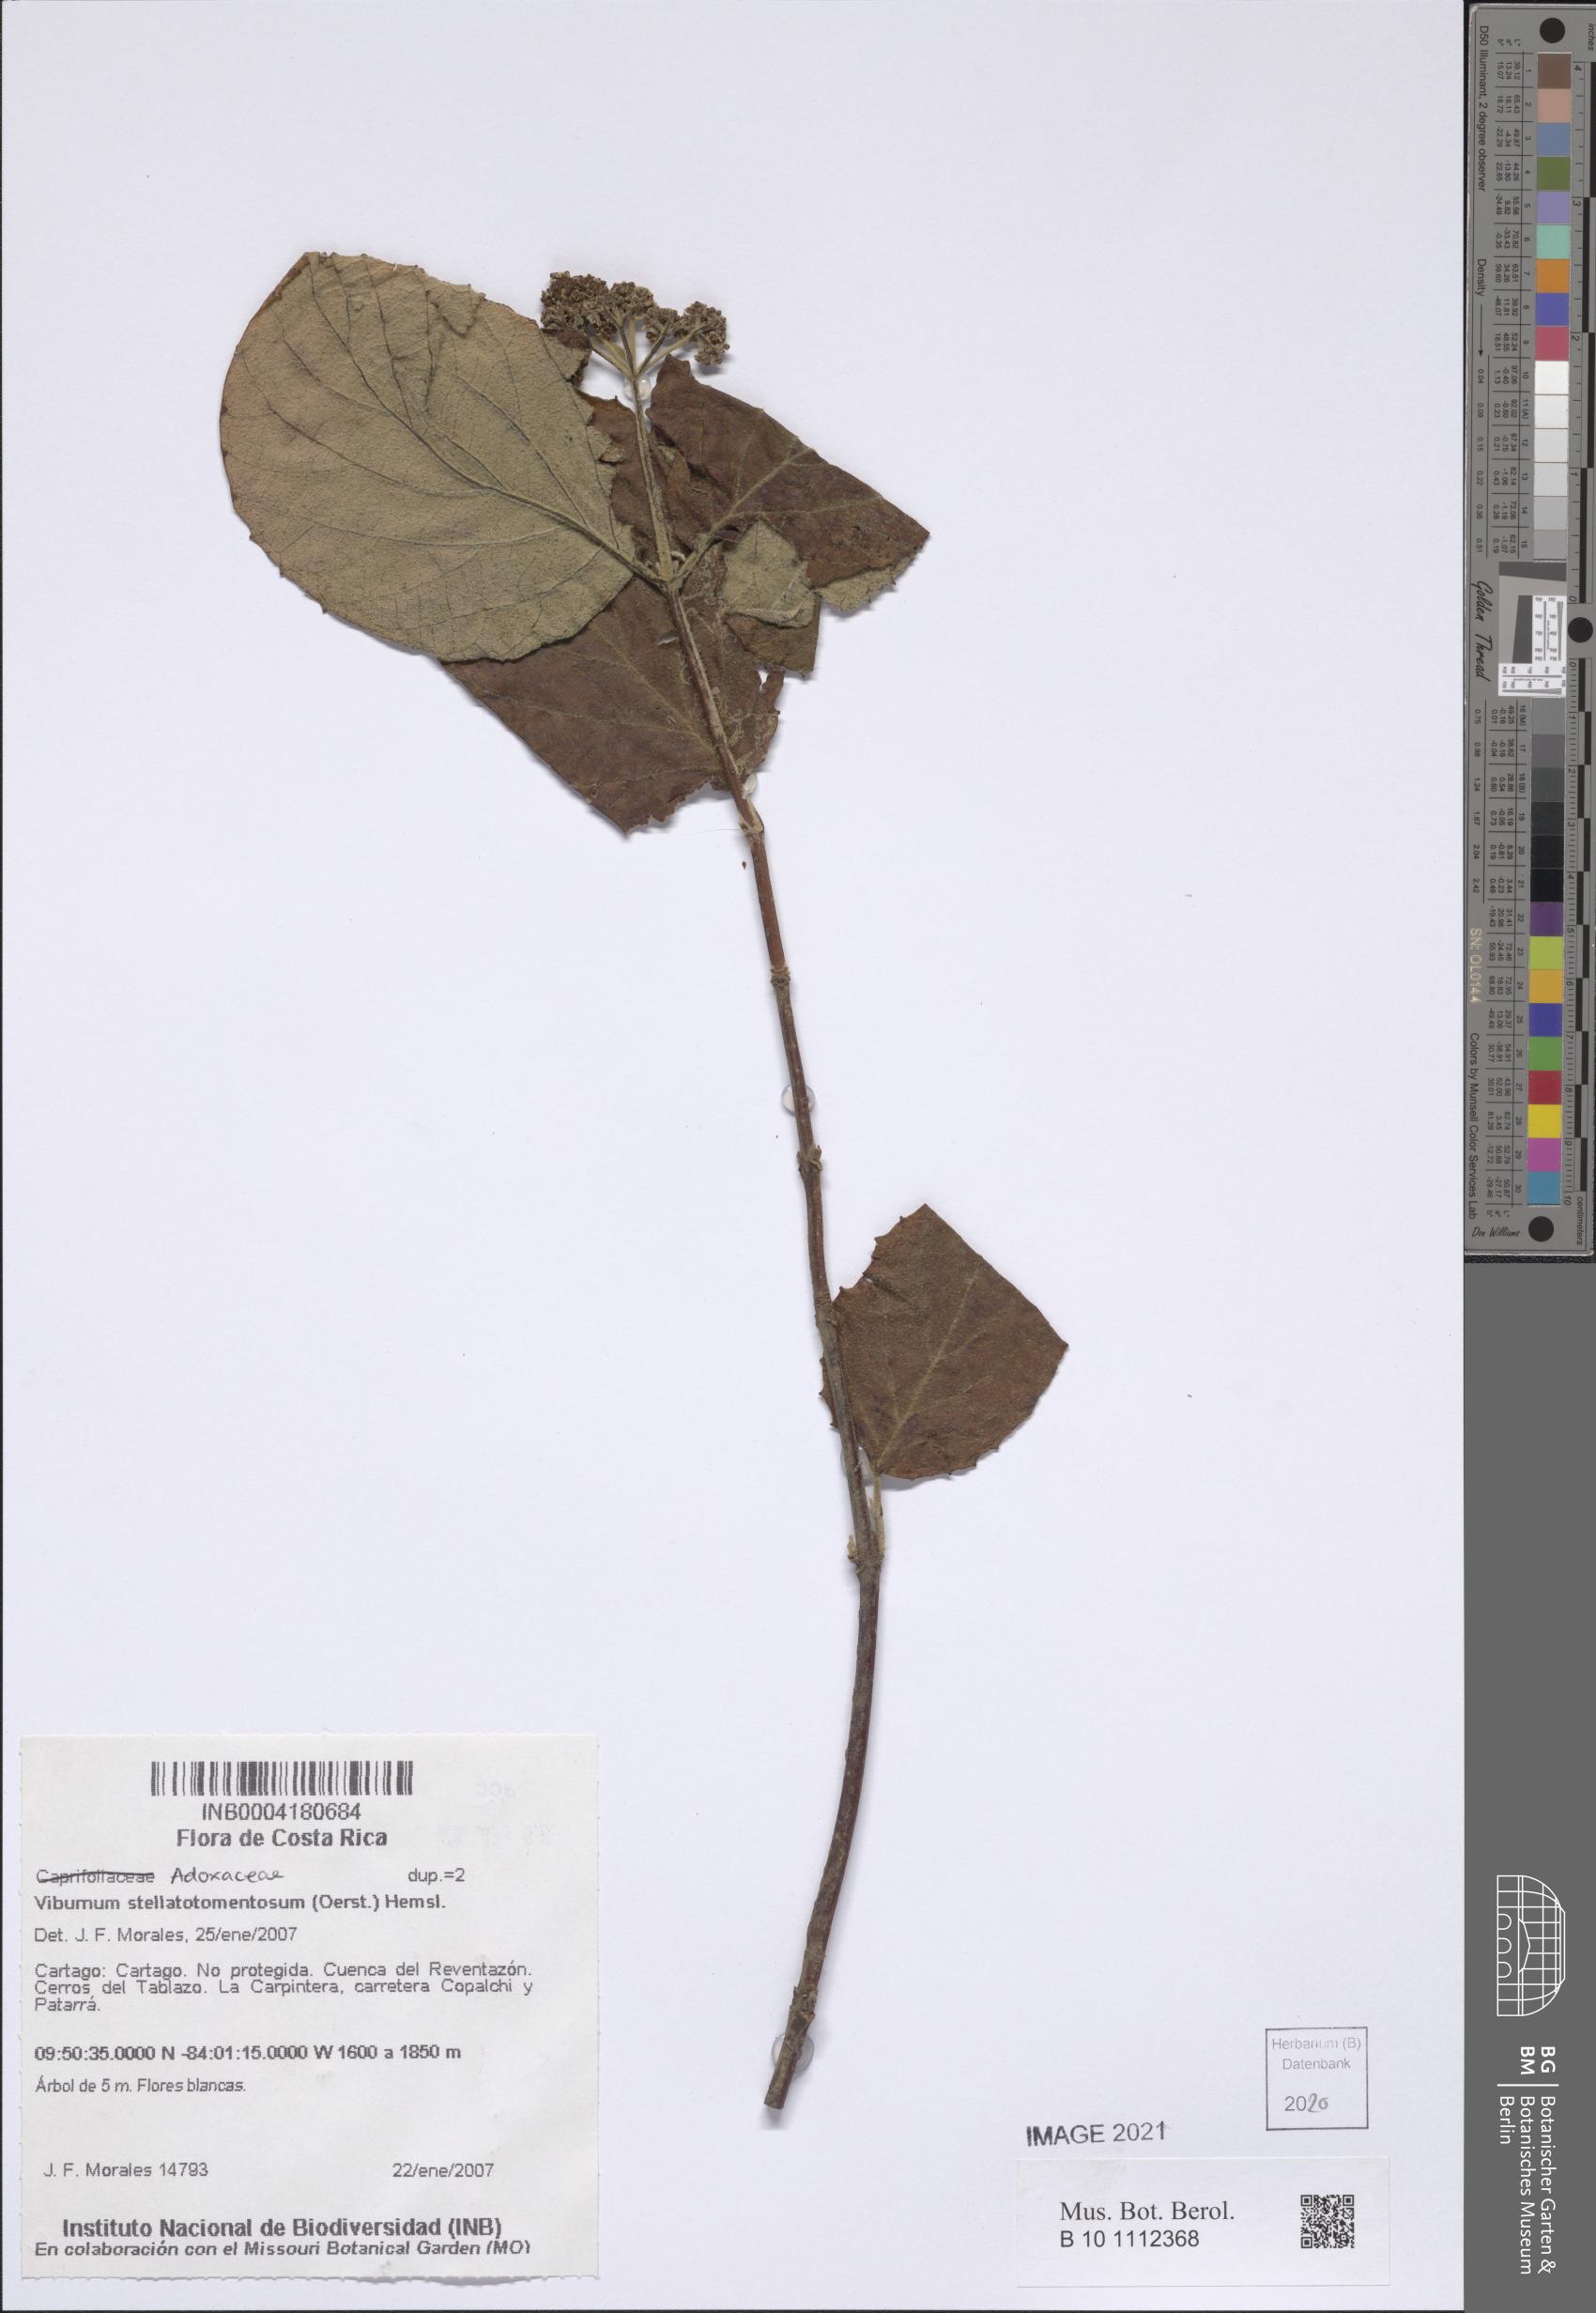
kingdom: Plantae
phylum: Tracheophyta
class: Magnoliopsida
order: Dipsacales
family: Viburnaceae
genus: Viburnum
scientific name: Viburnum stellatotomentosum
